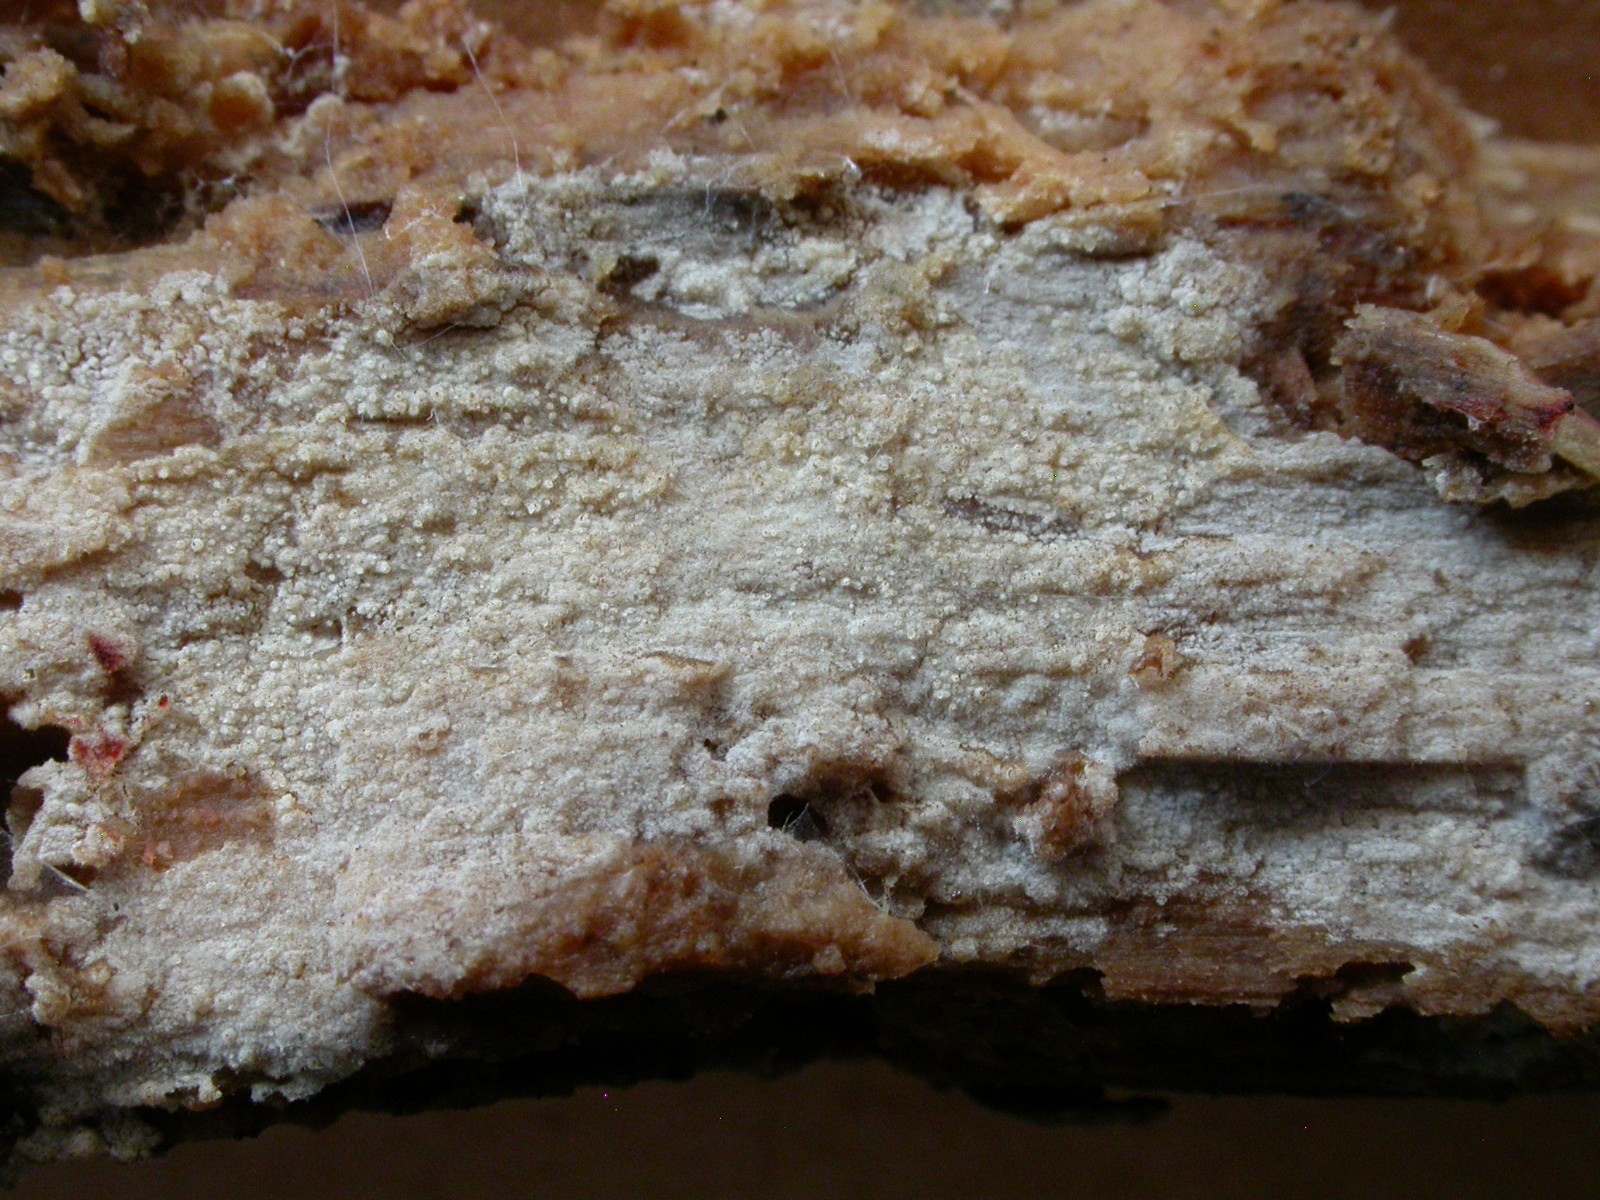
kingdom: Fungi
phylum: Basidiomycota
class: Agaricomycetes
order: Polyporales
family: Hyphodermataceae
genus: Kneiffia
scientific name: Kneiffia subalutacea
